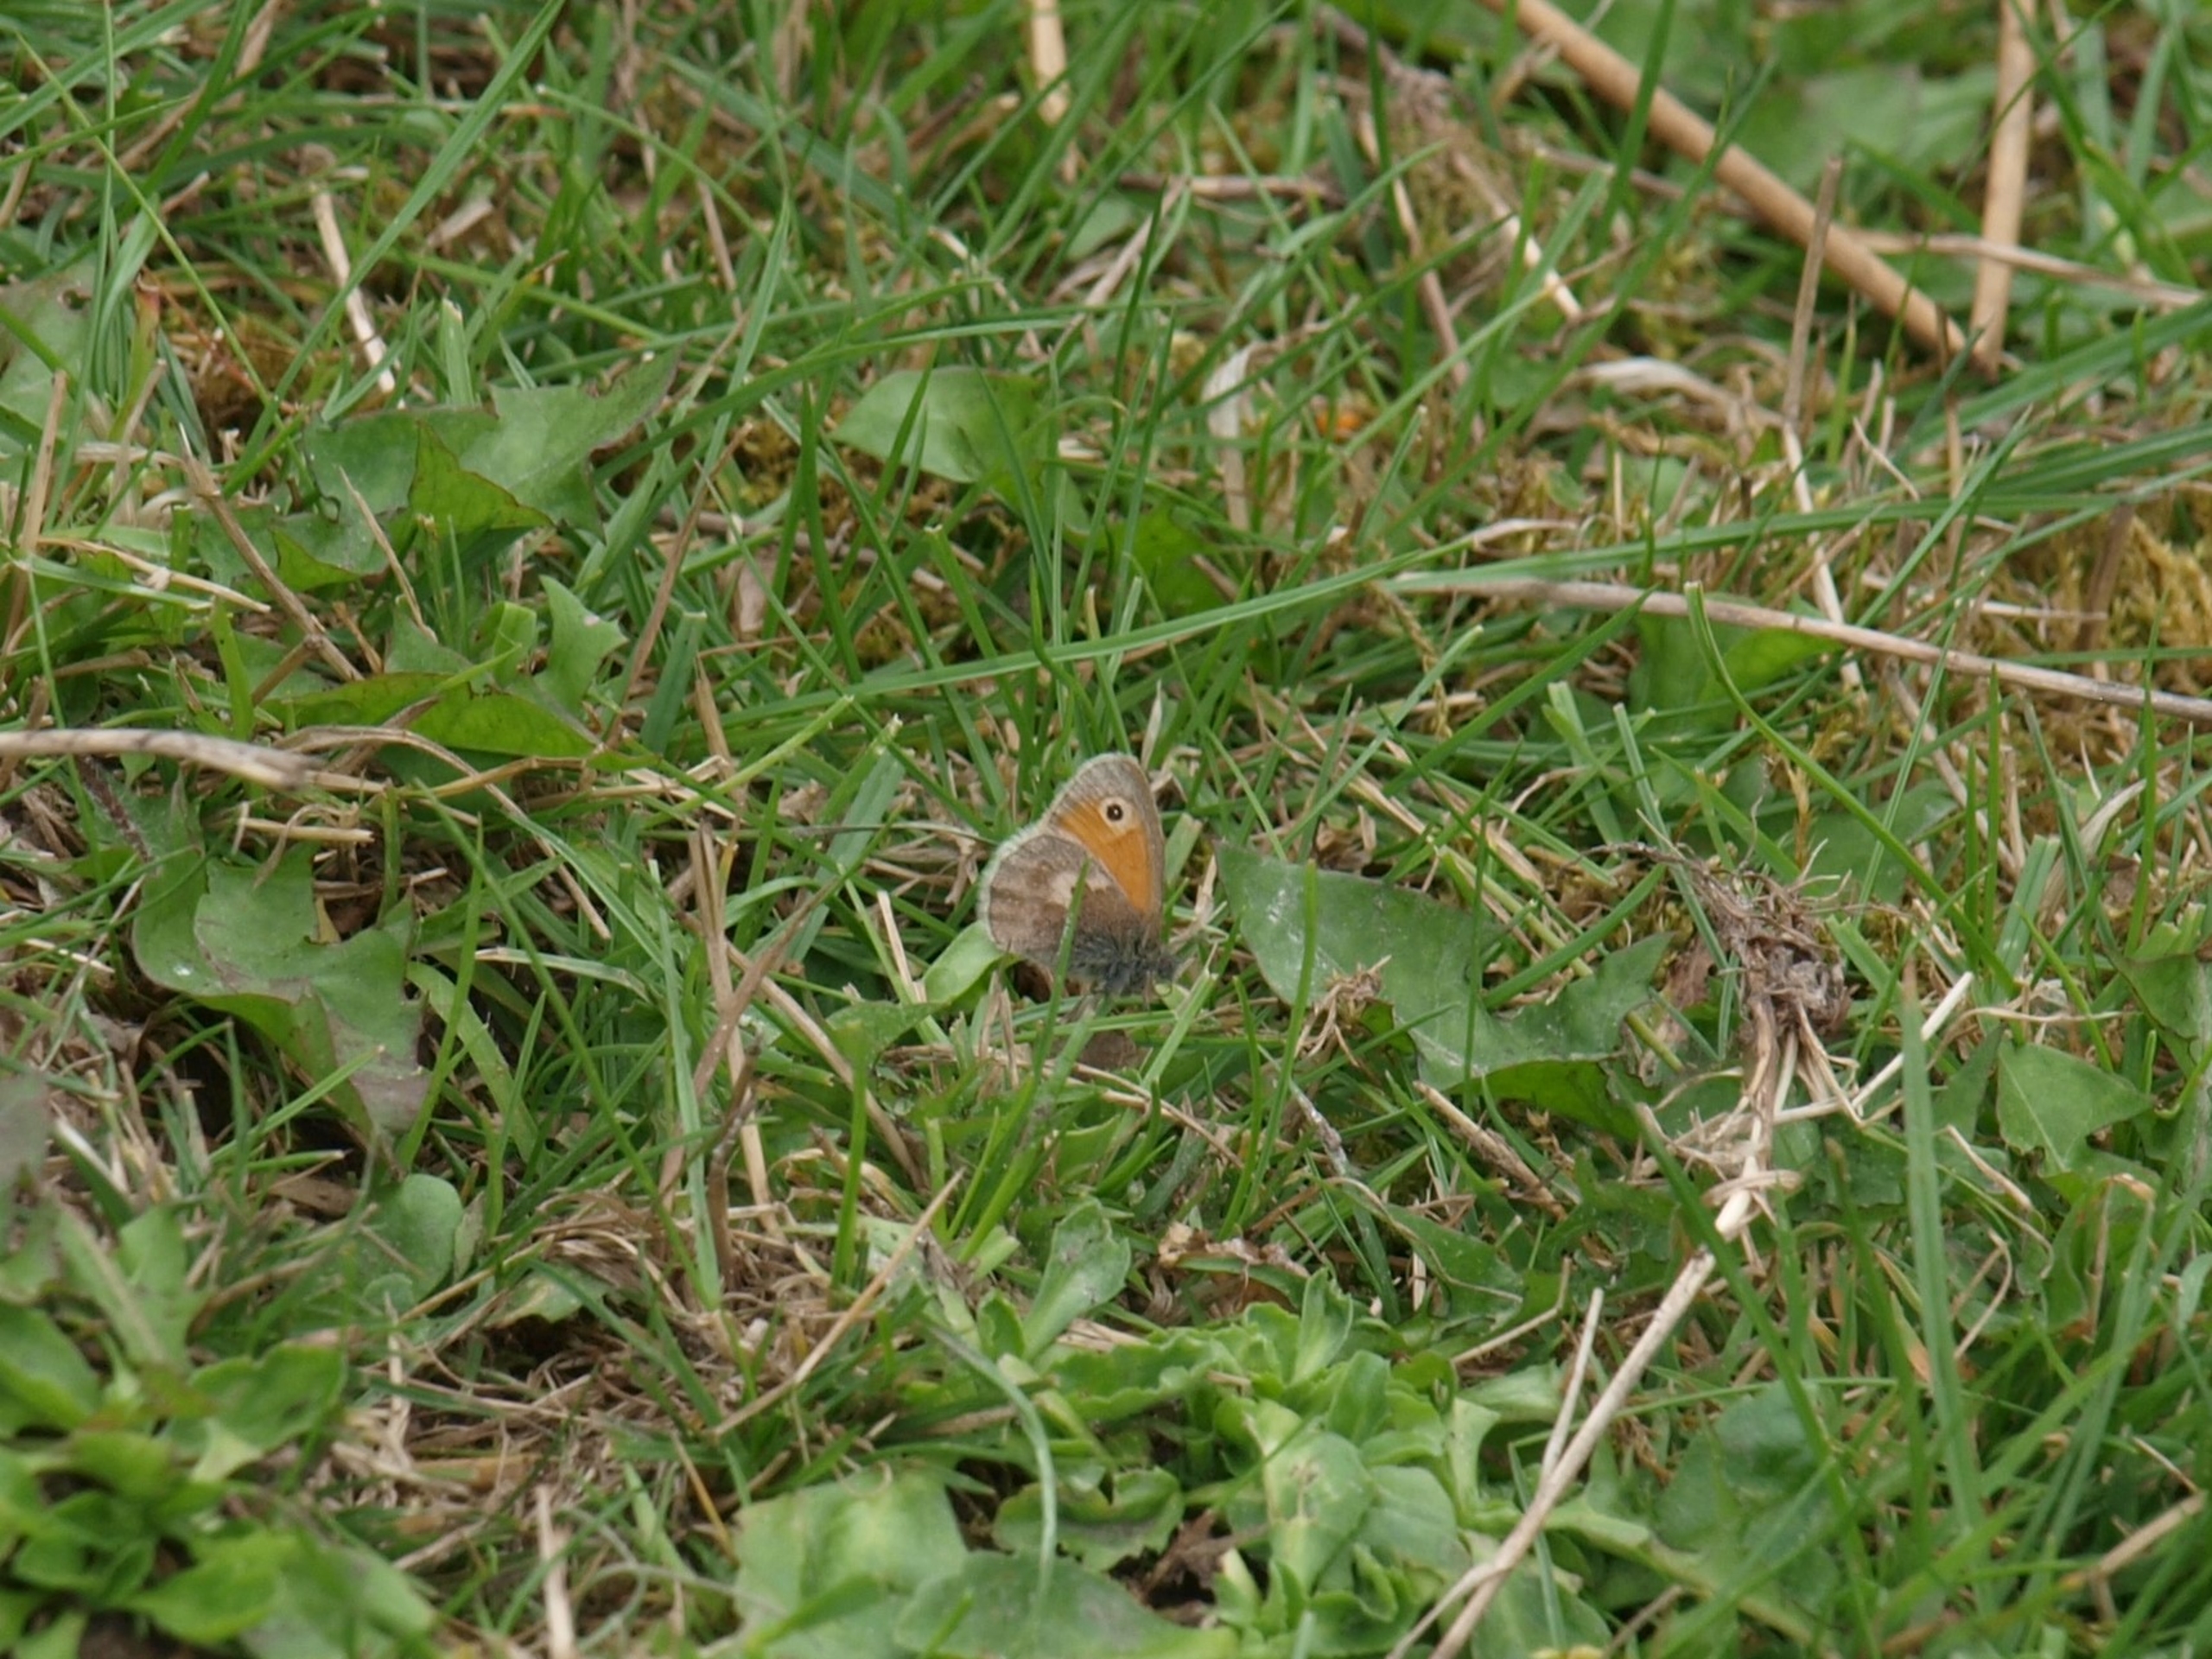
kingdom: Animalia
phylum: Arthropoda
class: Insecta
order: Lepidoptera
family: Nymphalidae
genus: Coenonympha
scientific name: Coenonympha pamphilus
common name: Okkergul randøje
